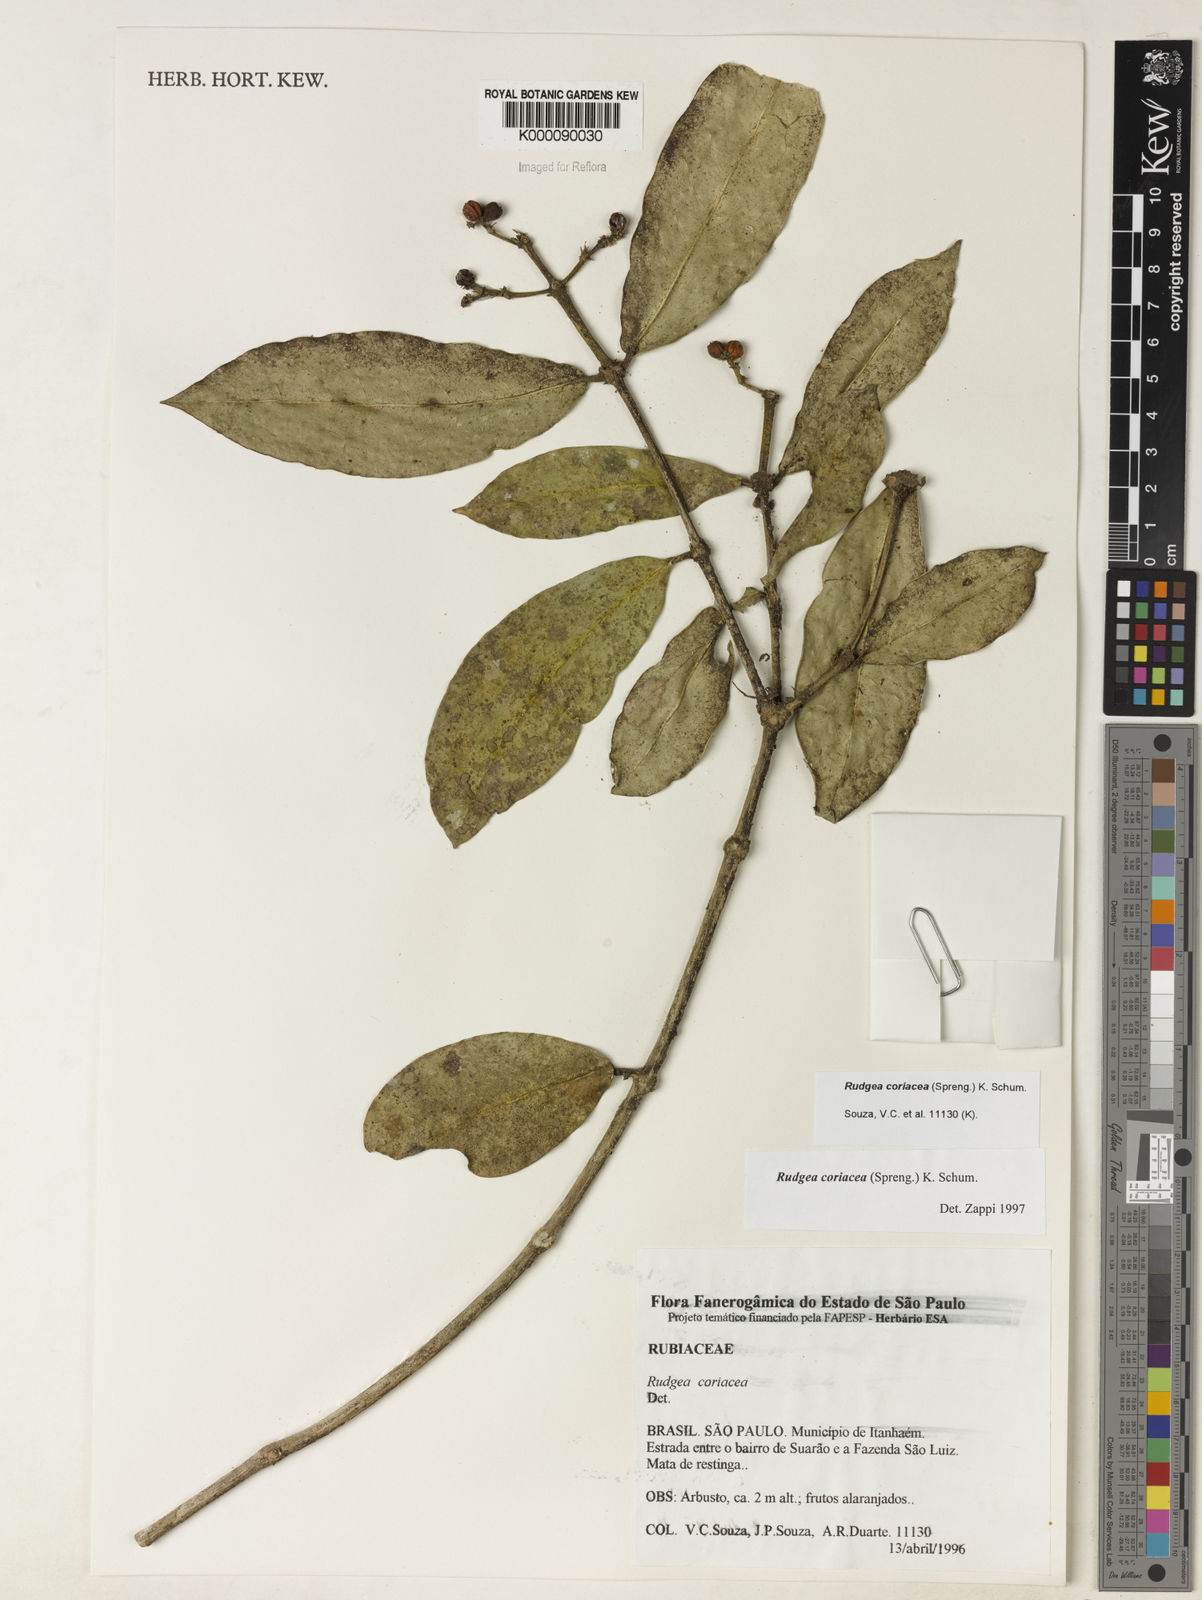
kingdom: Plantae
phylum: Tracheophyta
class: Magnoliopsida
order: Gentianales
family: Rubiaceae
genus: Rudgea
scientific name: Rudgea coriacea
